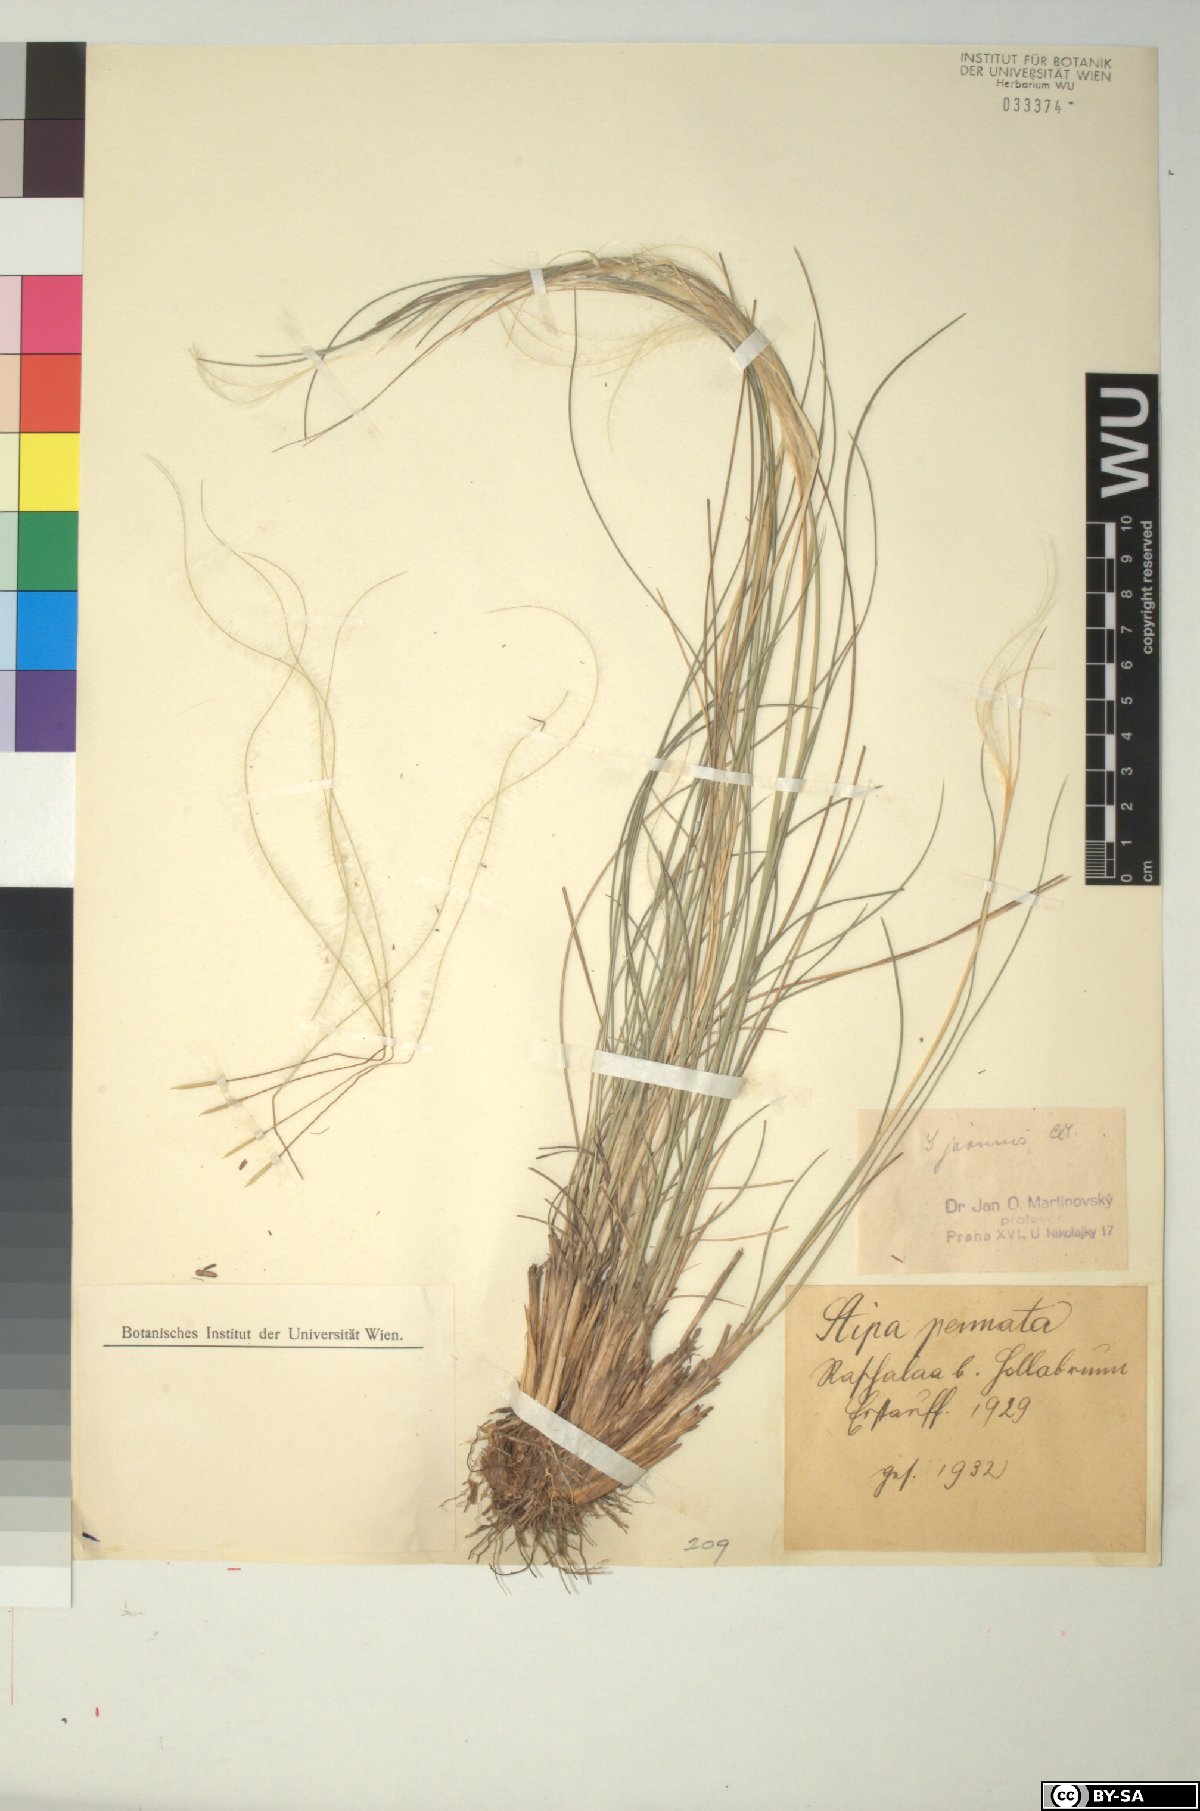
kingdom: Plantae
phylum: Tracheophyta
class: Liliopsida
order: Poales
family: Poaceae
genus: Stipa
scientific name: Stipa pennata
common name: European feather grass
